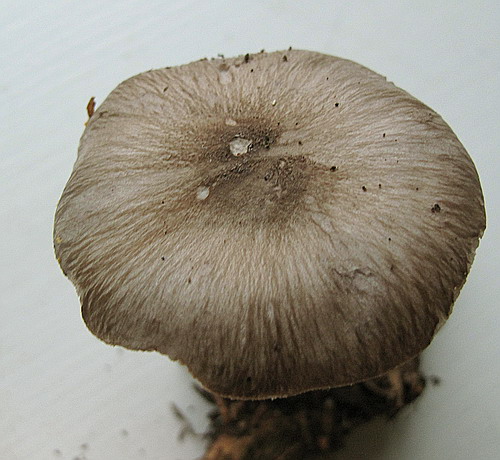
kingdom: Fungi
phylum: Basidiomycota
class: Agaricomycetes
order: Agaricales
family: Pluteaceae
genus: Pluteus
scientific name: Pluteus primus
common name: tidlig skærmhat
